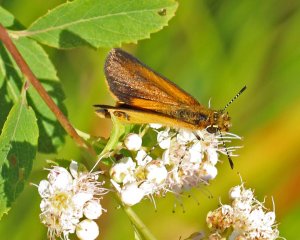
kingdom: Animalia
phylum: Arthropoda
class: Insecta
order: Lepidoptera
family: Hesperiidae
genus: Ancyloxypha
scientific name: Ancyloxypha numitor
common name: Least Skipper
